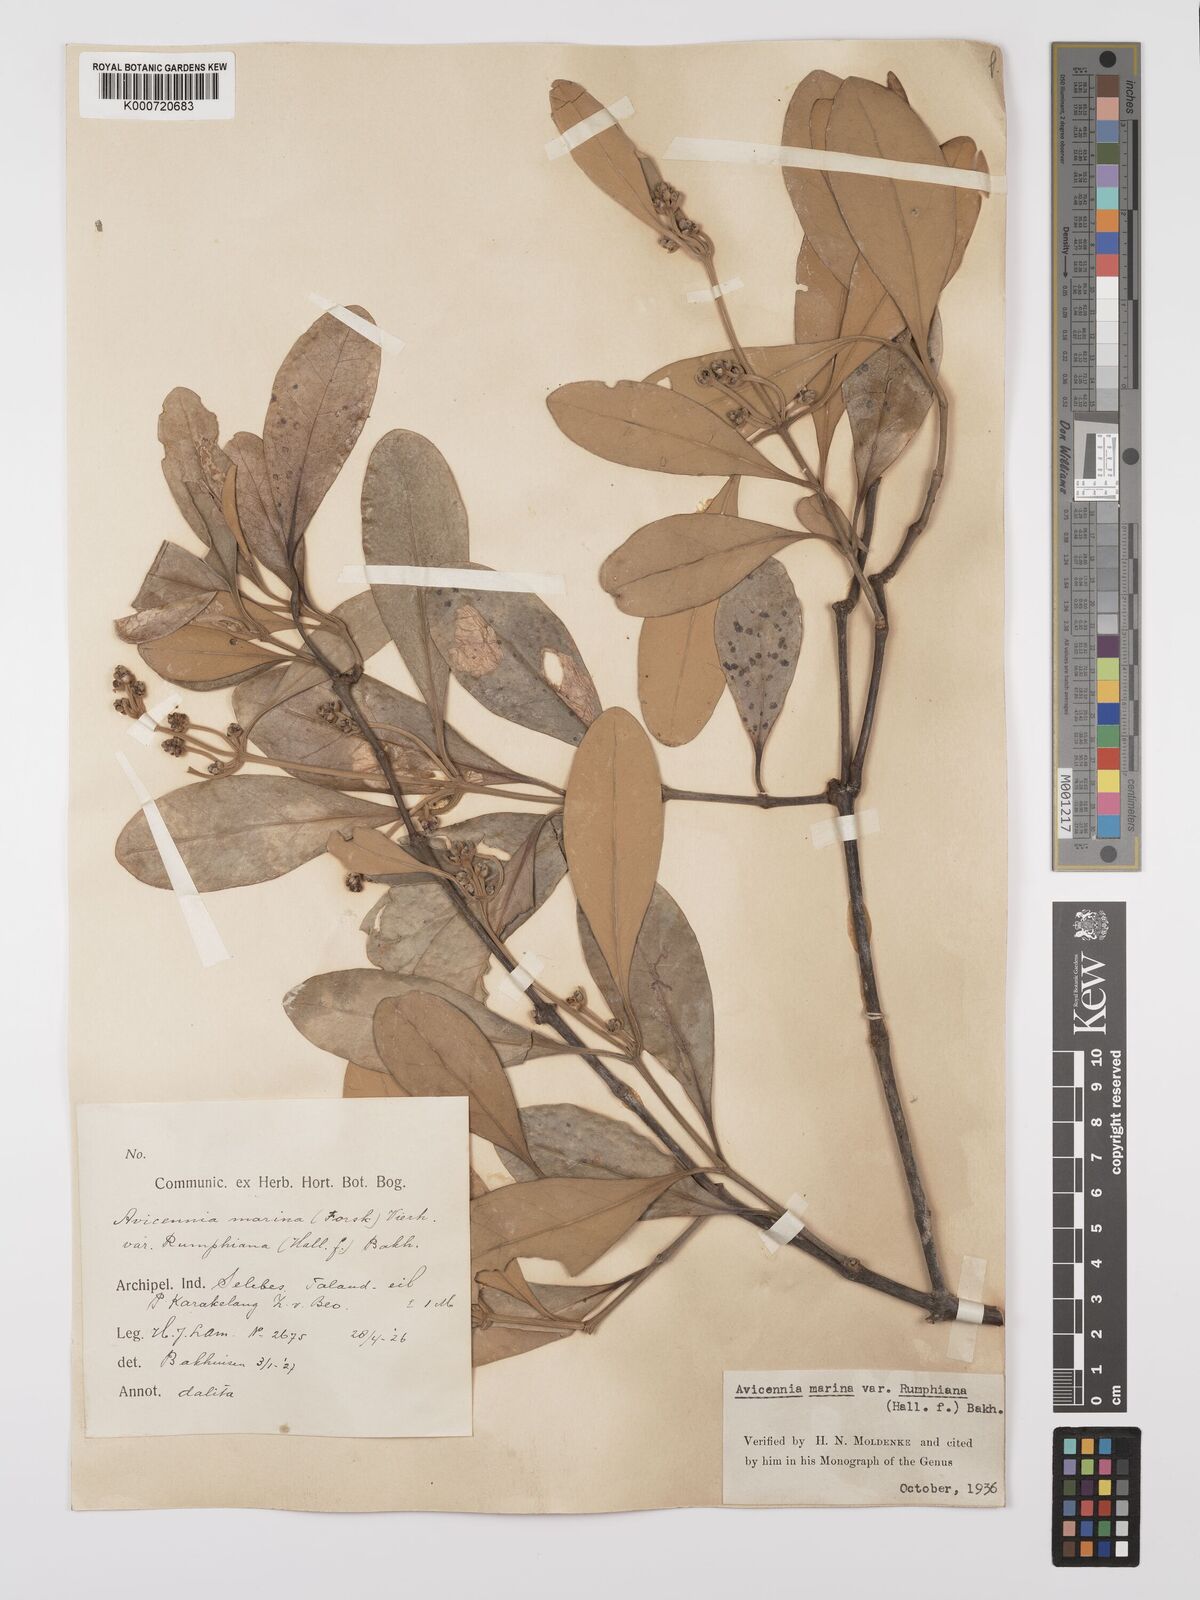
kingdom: Plantae
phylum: Tracheophyta
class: Magnoliopsida
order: Lamiales
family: Acanthaceae
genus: Avicennia
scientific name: Avicennia marina
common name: Gray mangrove
